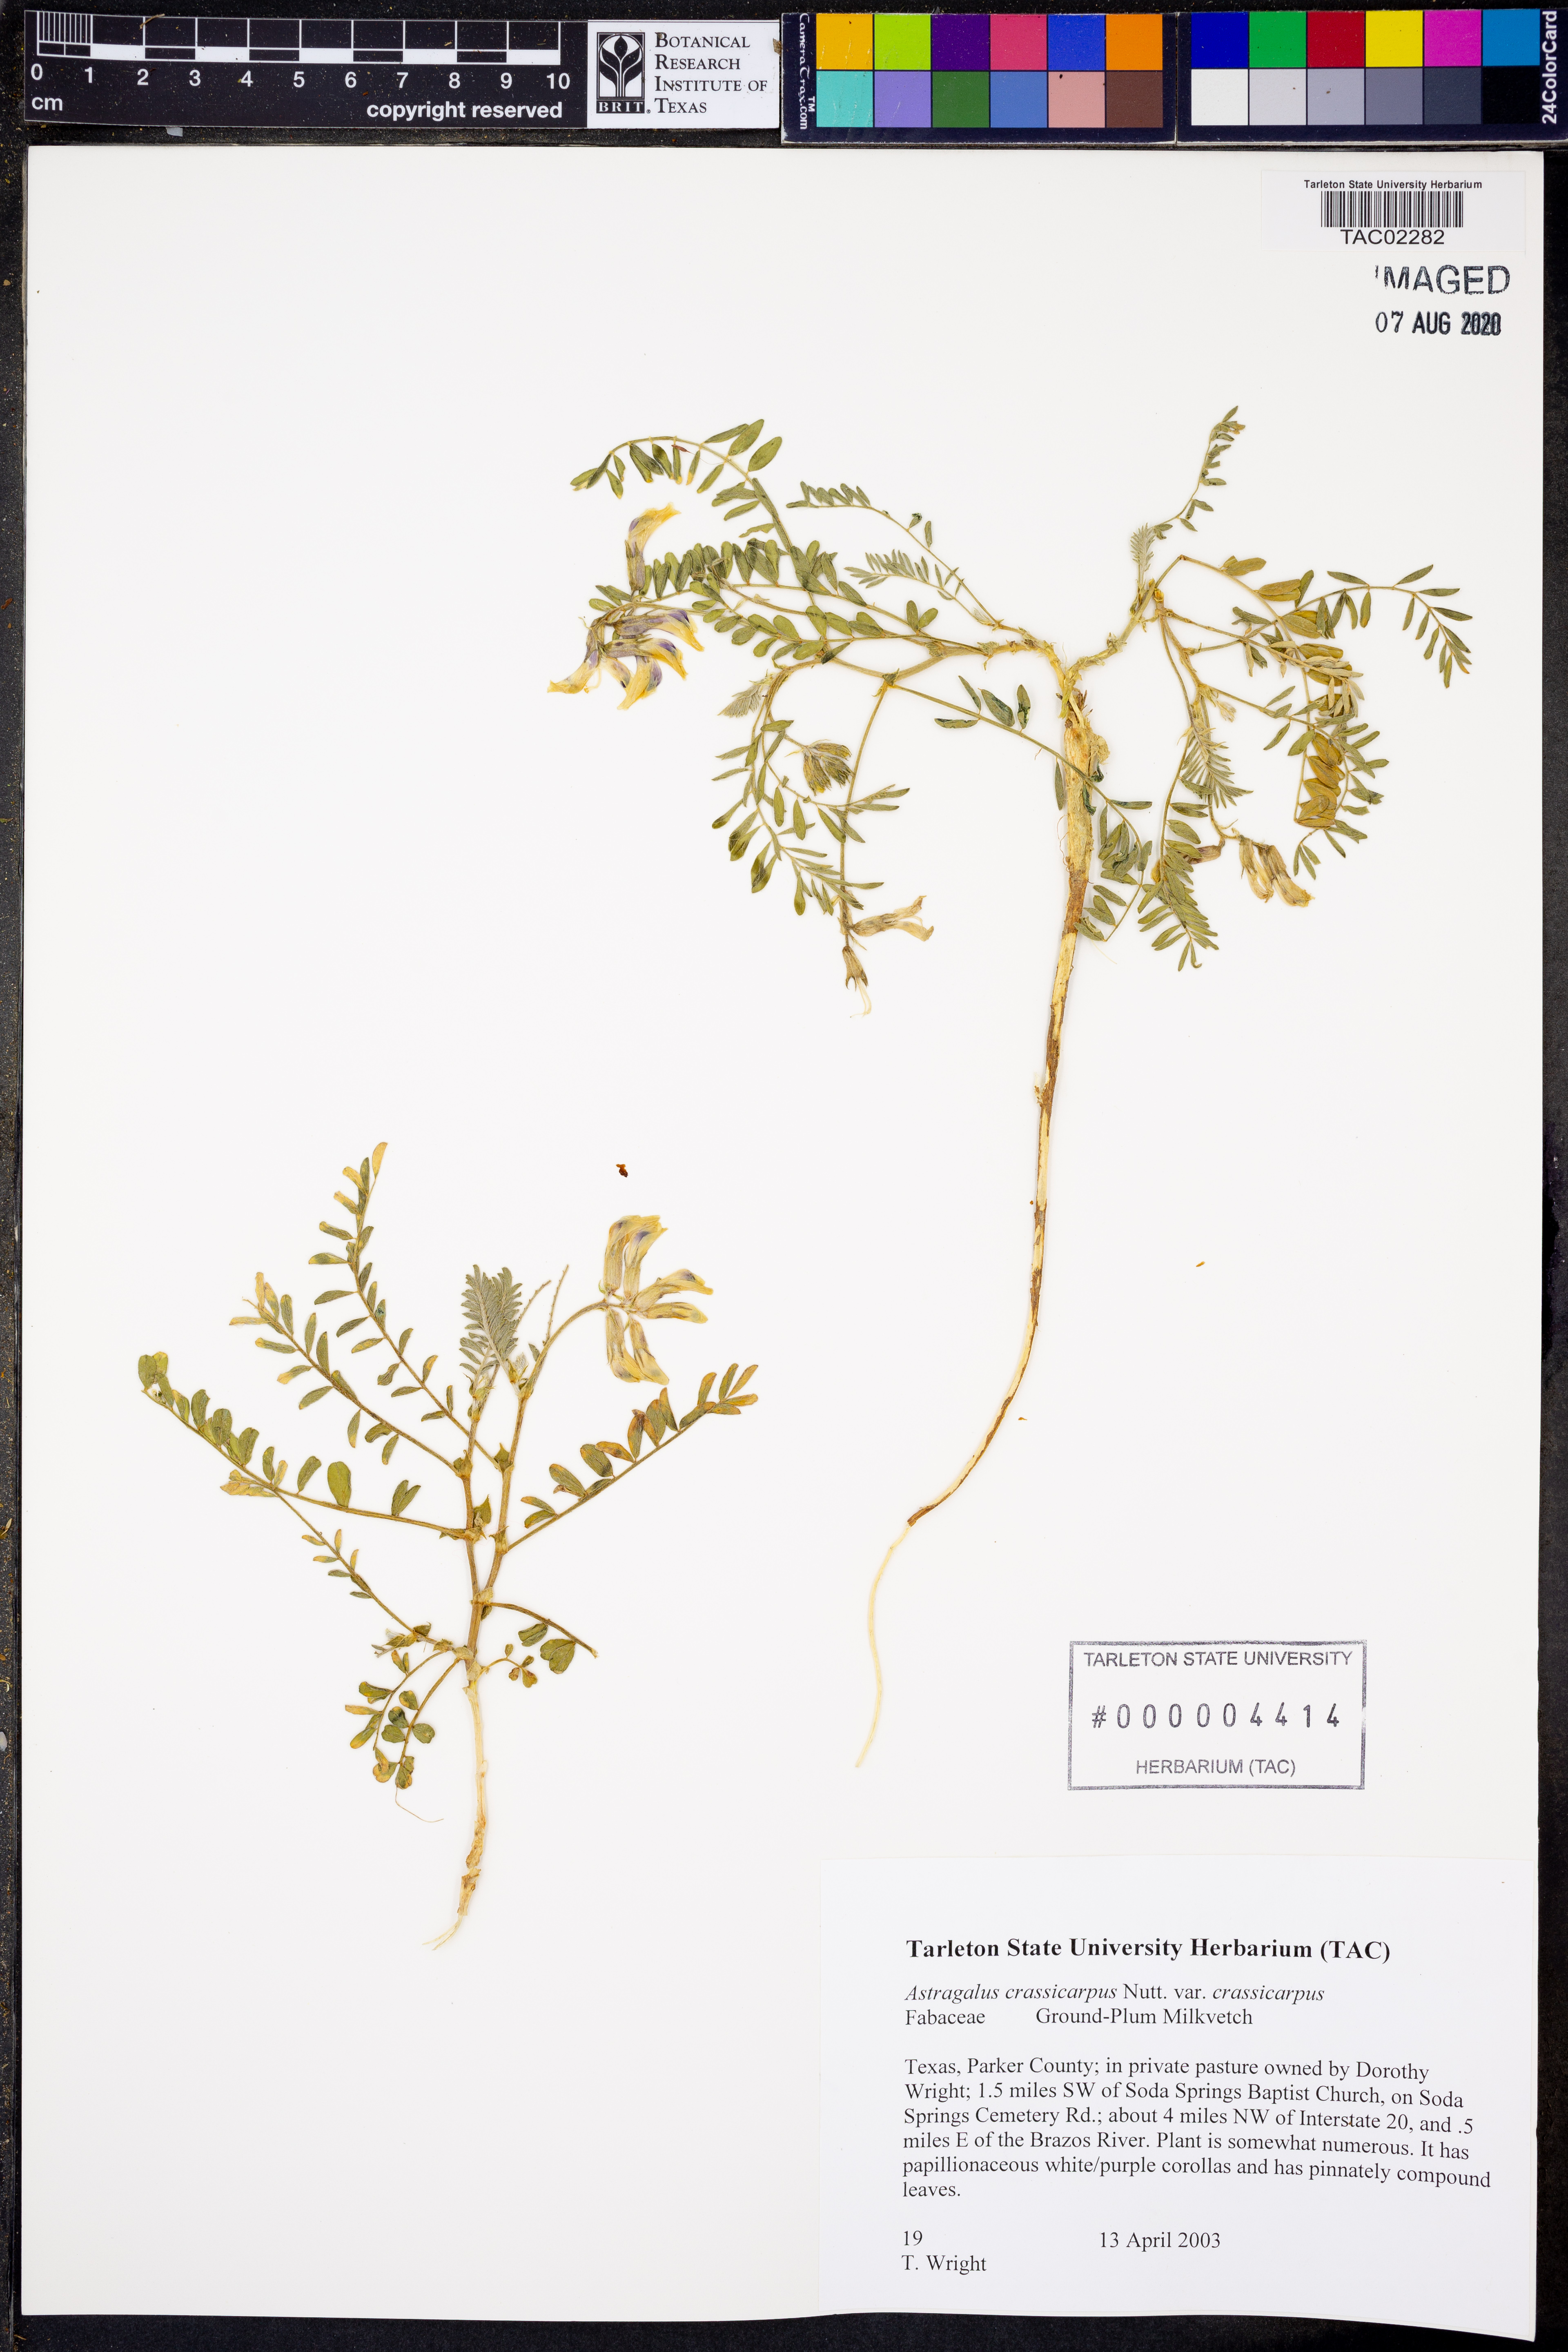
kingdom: Plantae
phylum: Tracheophyta
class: Magnoliopsida
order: Fabales
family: Fabaceae
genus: Astragalus
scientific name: Astragalus crassicarpus
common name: Ground-plum milk-vetch
